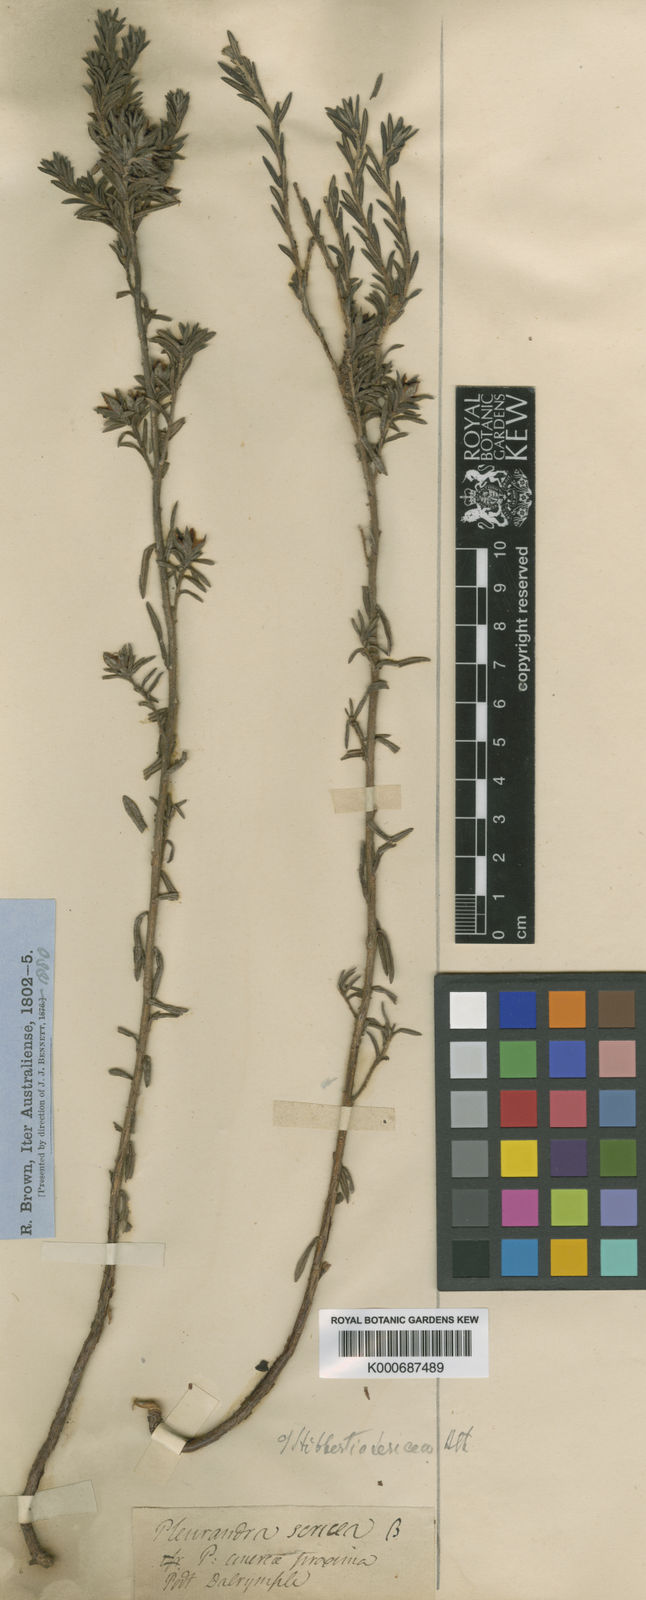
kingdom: Plantae
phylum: Tracheophyta
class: Magnoliopsida
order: Dilleniales
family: Dilleniaceae
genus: Hibbertia
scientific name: Hibbertia sericea
